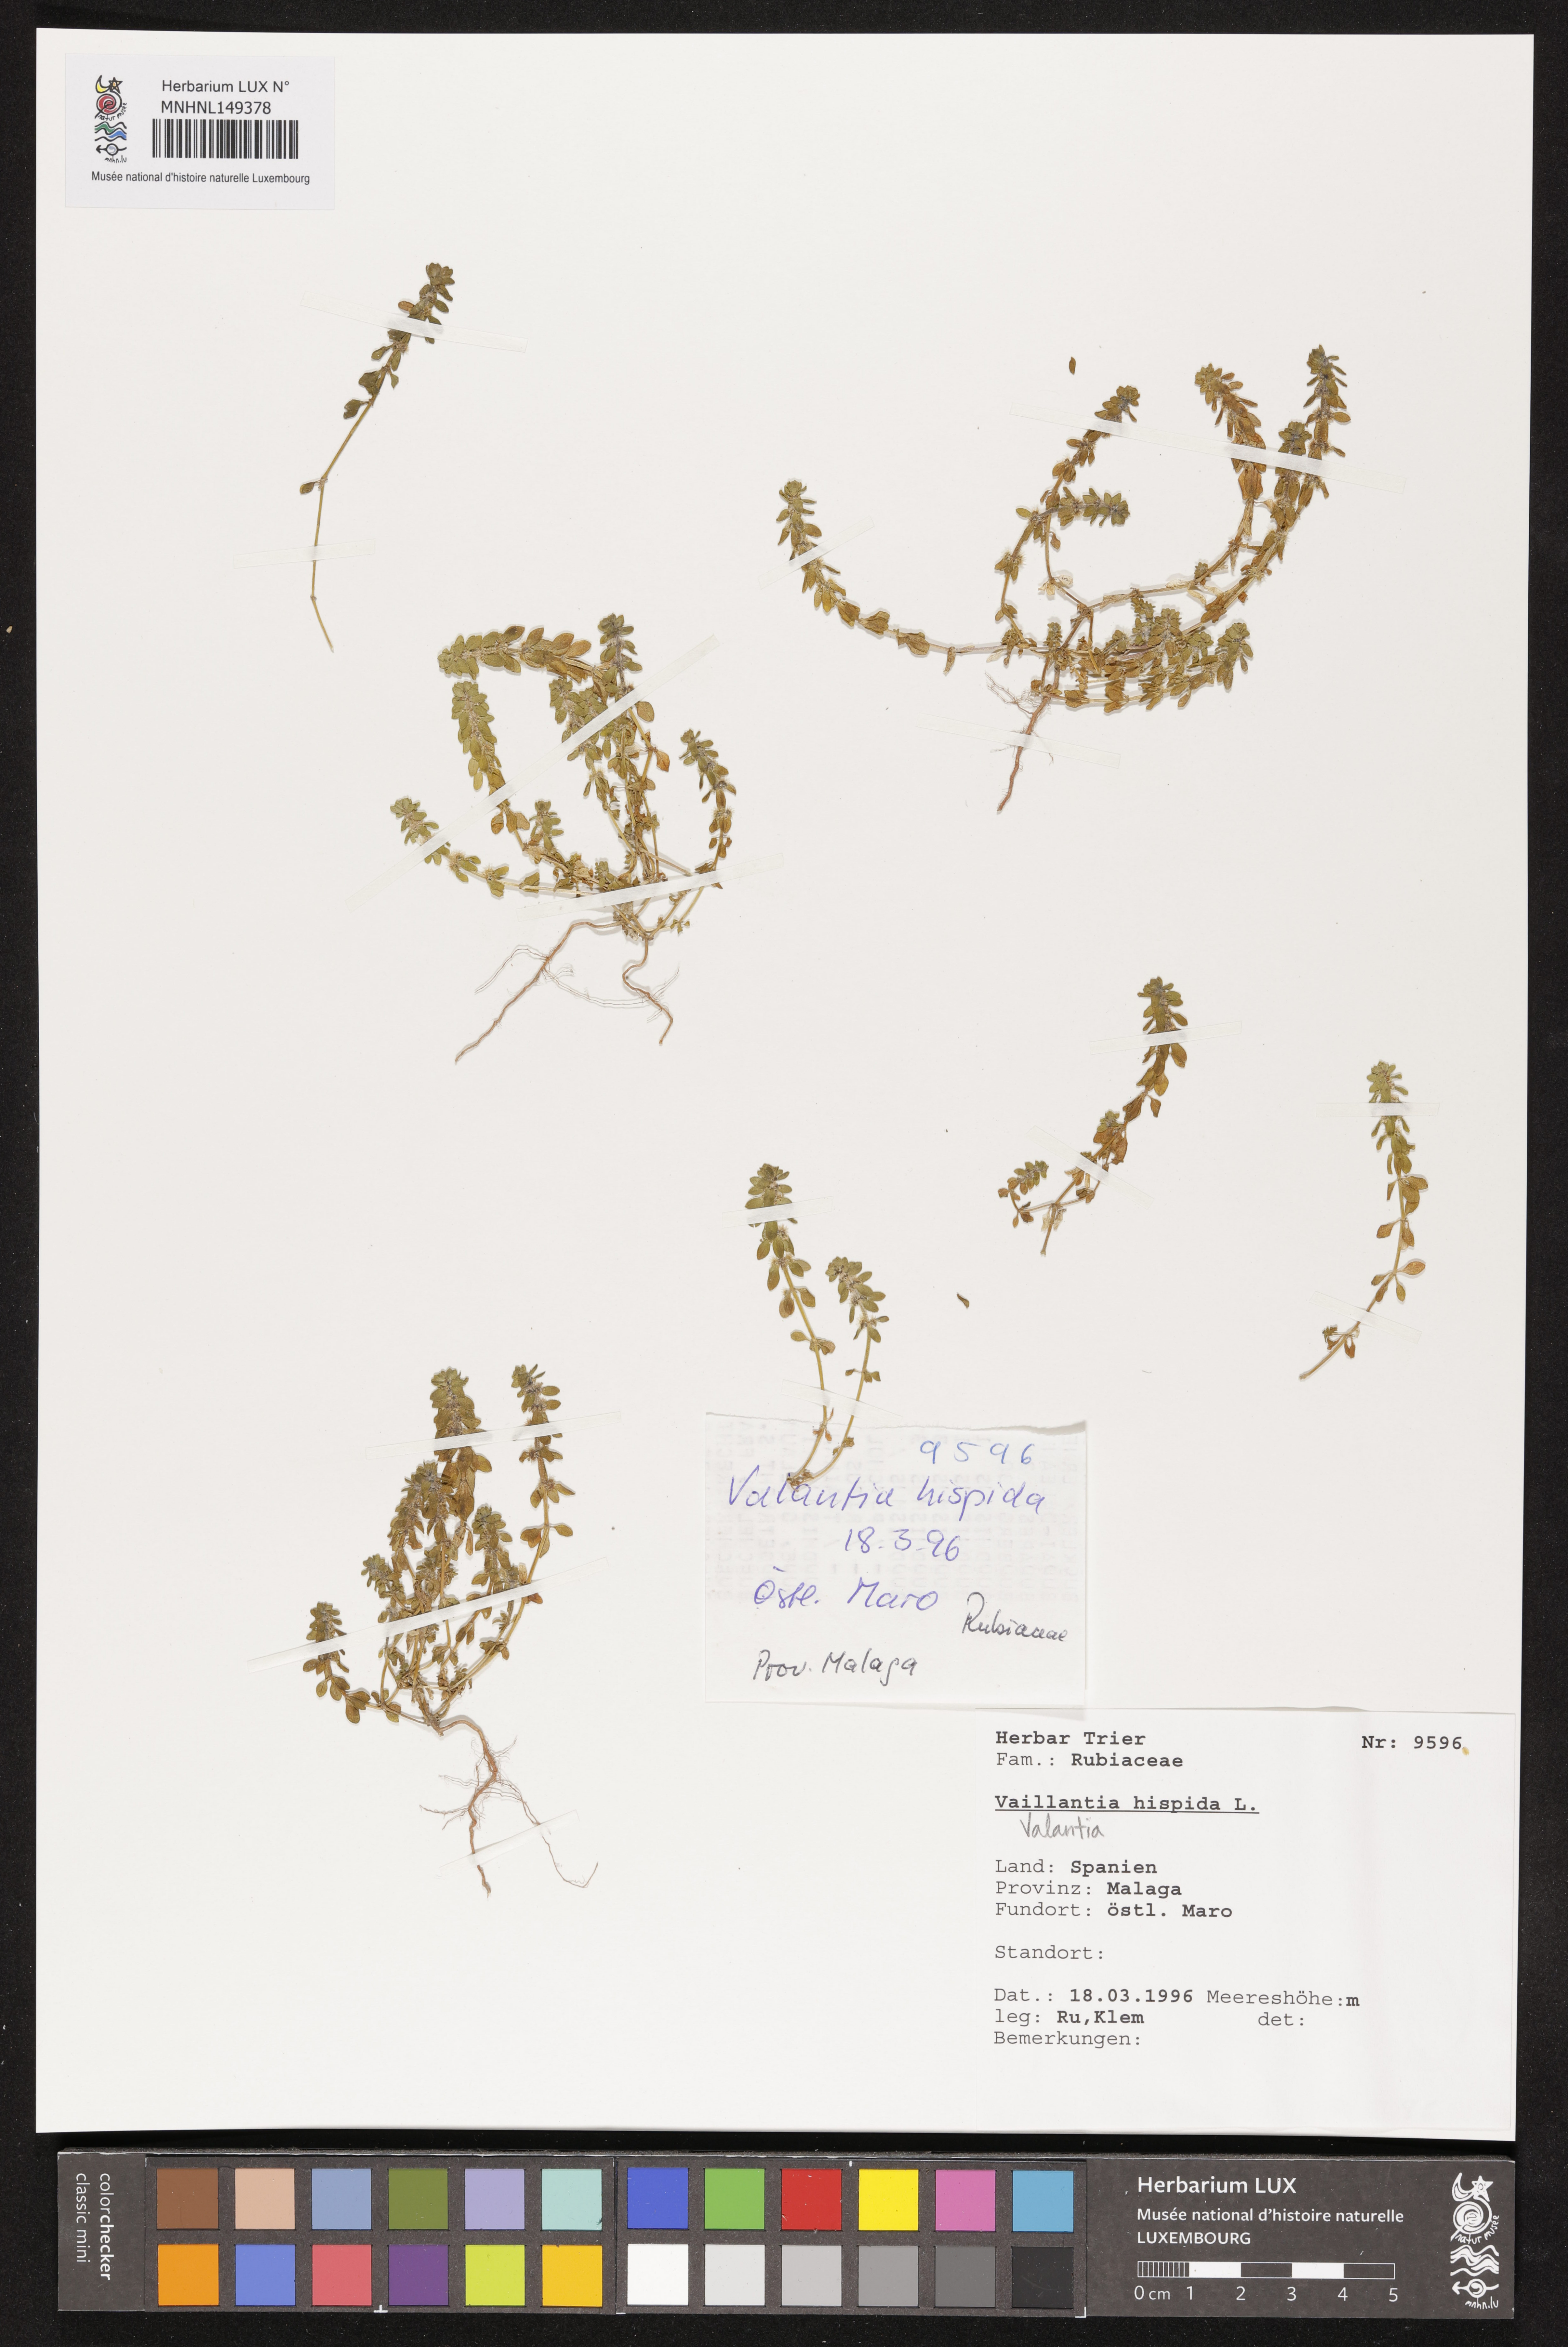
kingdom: Plantae
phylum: Tracheophyta
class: Magnoliopsida
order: Gentianales
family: Rubiaceae
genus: Valantia
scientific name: Valantia hispida
